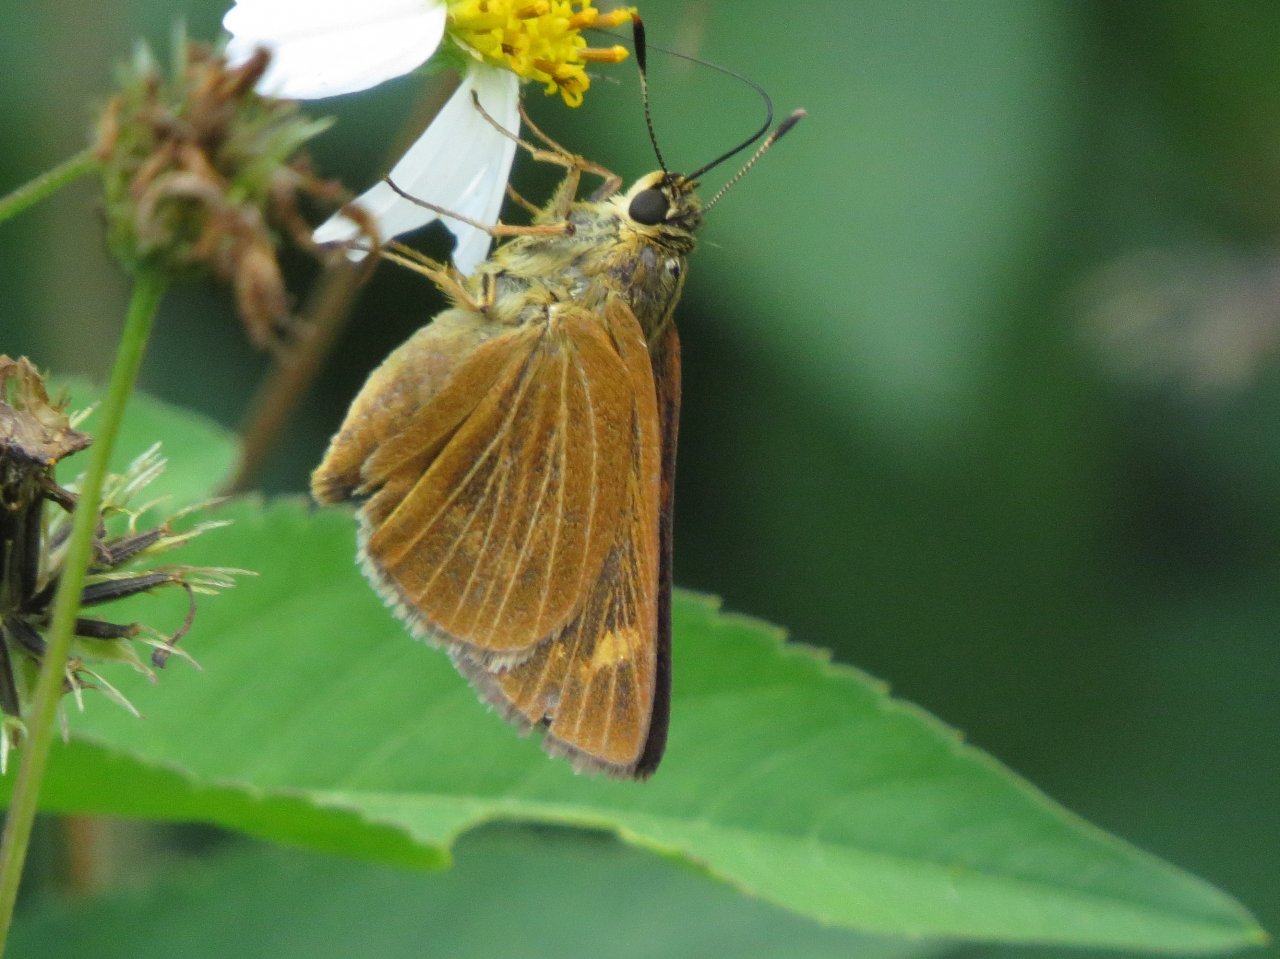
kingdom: Animalia
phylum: Arthropoda
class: Insecta
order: Lepidoptera
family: Hesperiidae
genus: Problema
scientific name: Problema byssus
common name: Byssus Skipper
